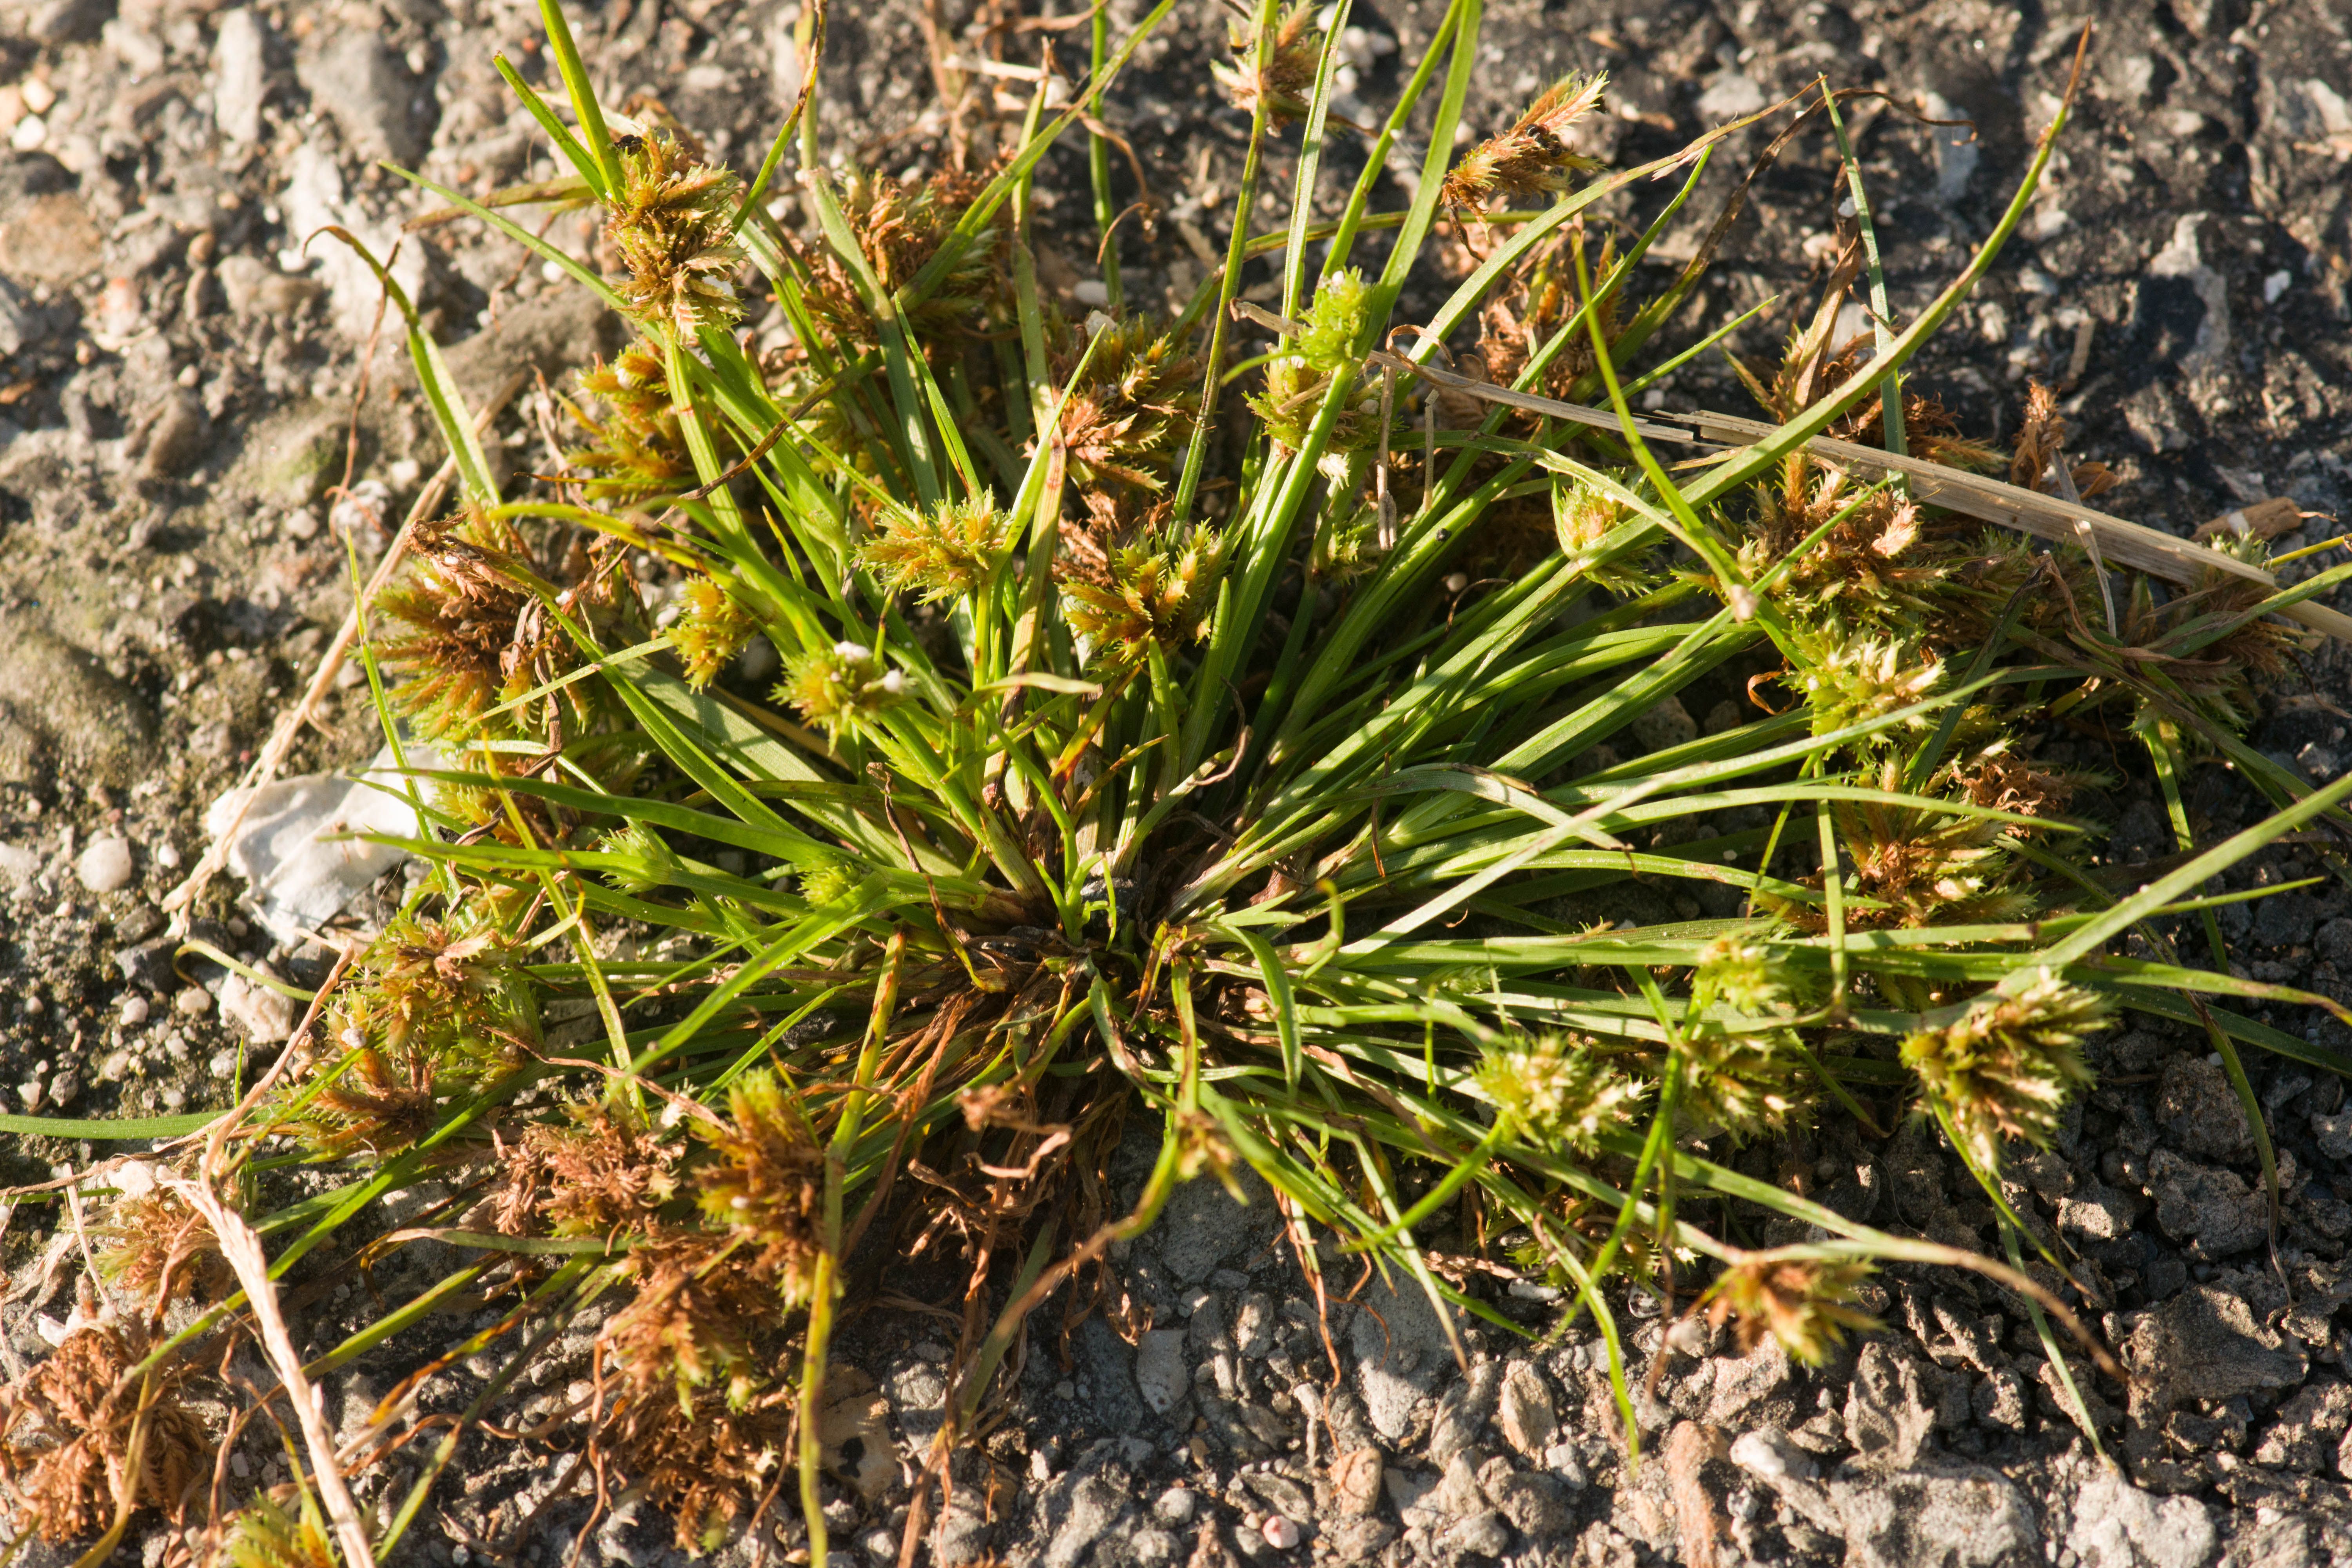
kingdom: Plantae
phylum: Tracheophyta
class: Liliopsida
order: Poales
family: Cyperaceae
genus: Cyperus
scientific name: Cyperus squarrosus
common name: Awned cyperus
